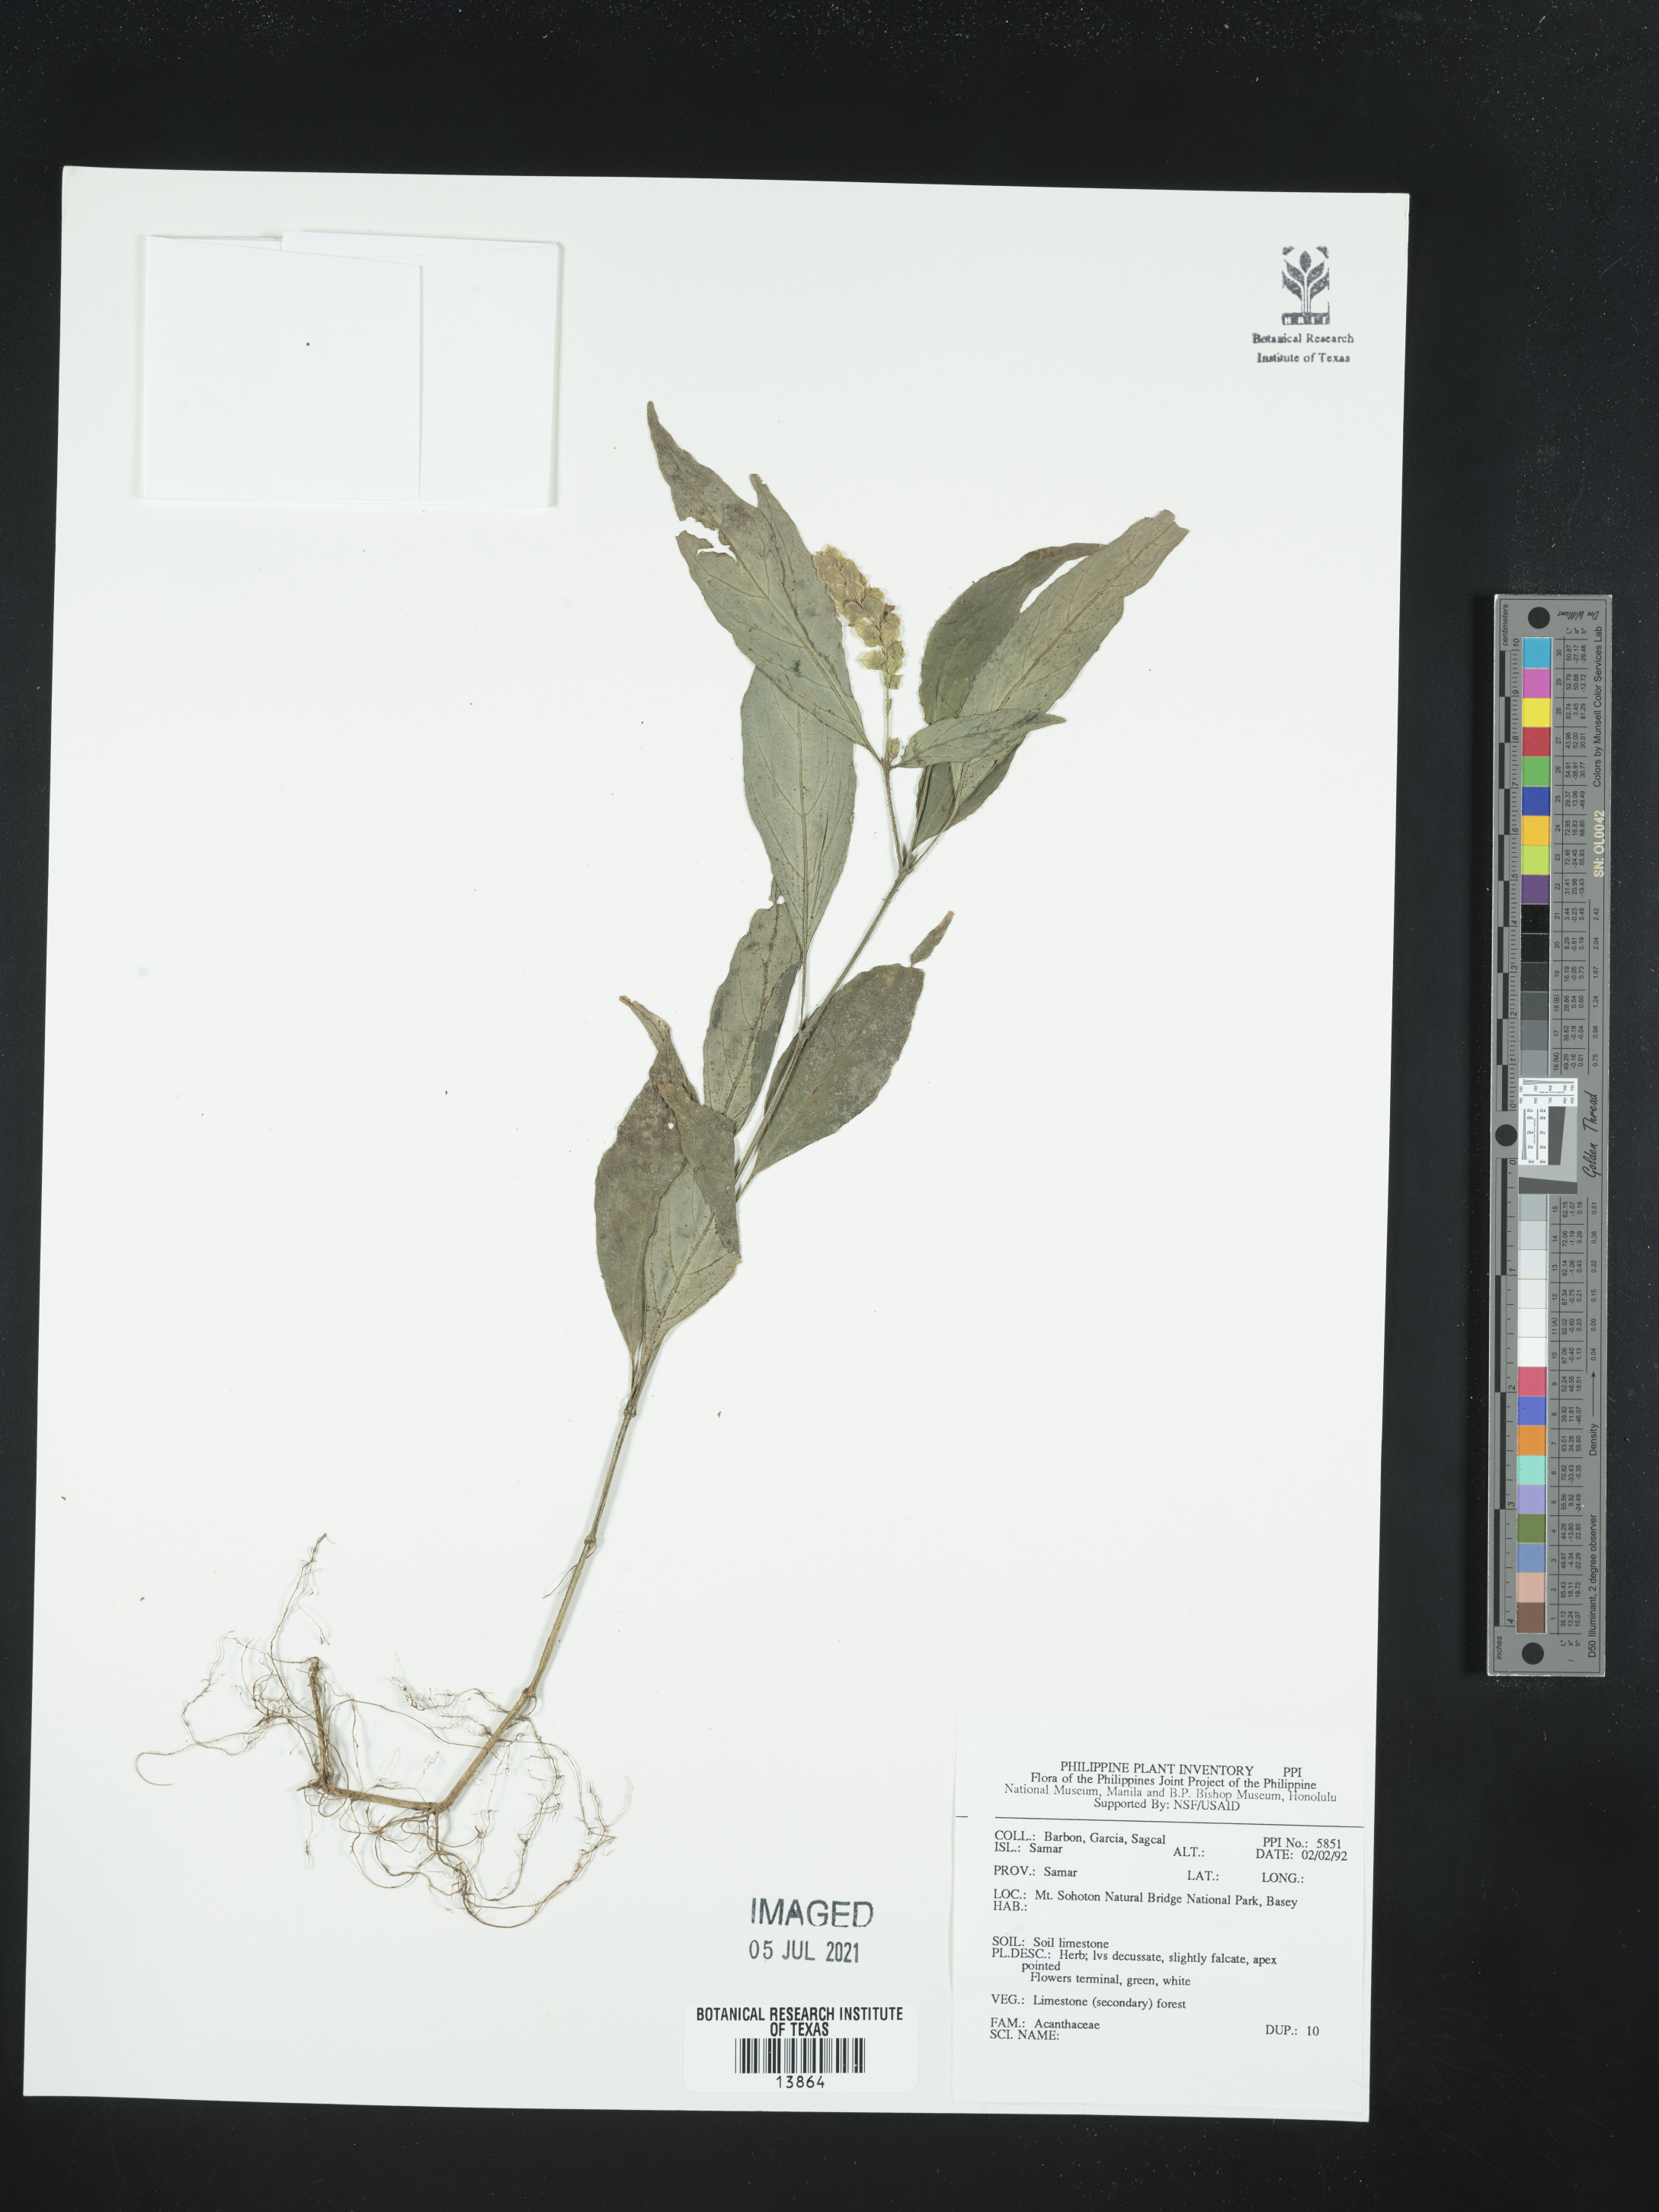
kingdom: Plantae
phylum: Tracheophyta
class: Magnoliopsida
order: Lamiales
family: Acanthaceae
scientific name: Acanthaceae
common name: Acanthaceae
